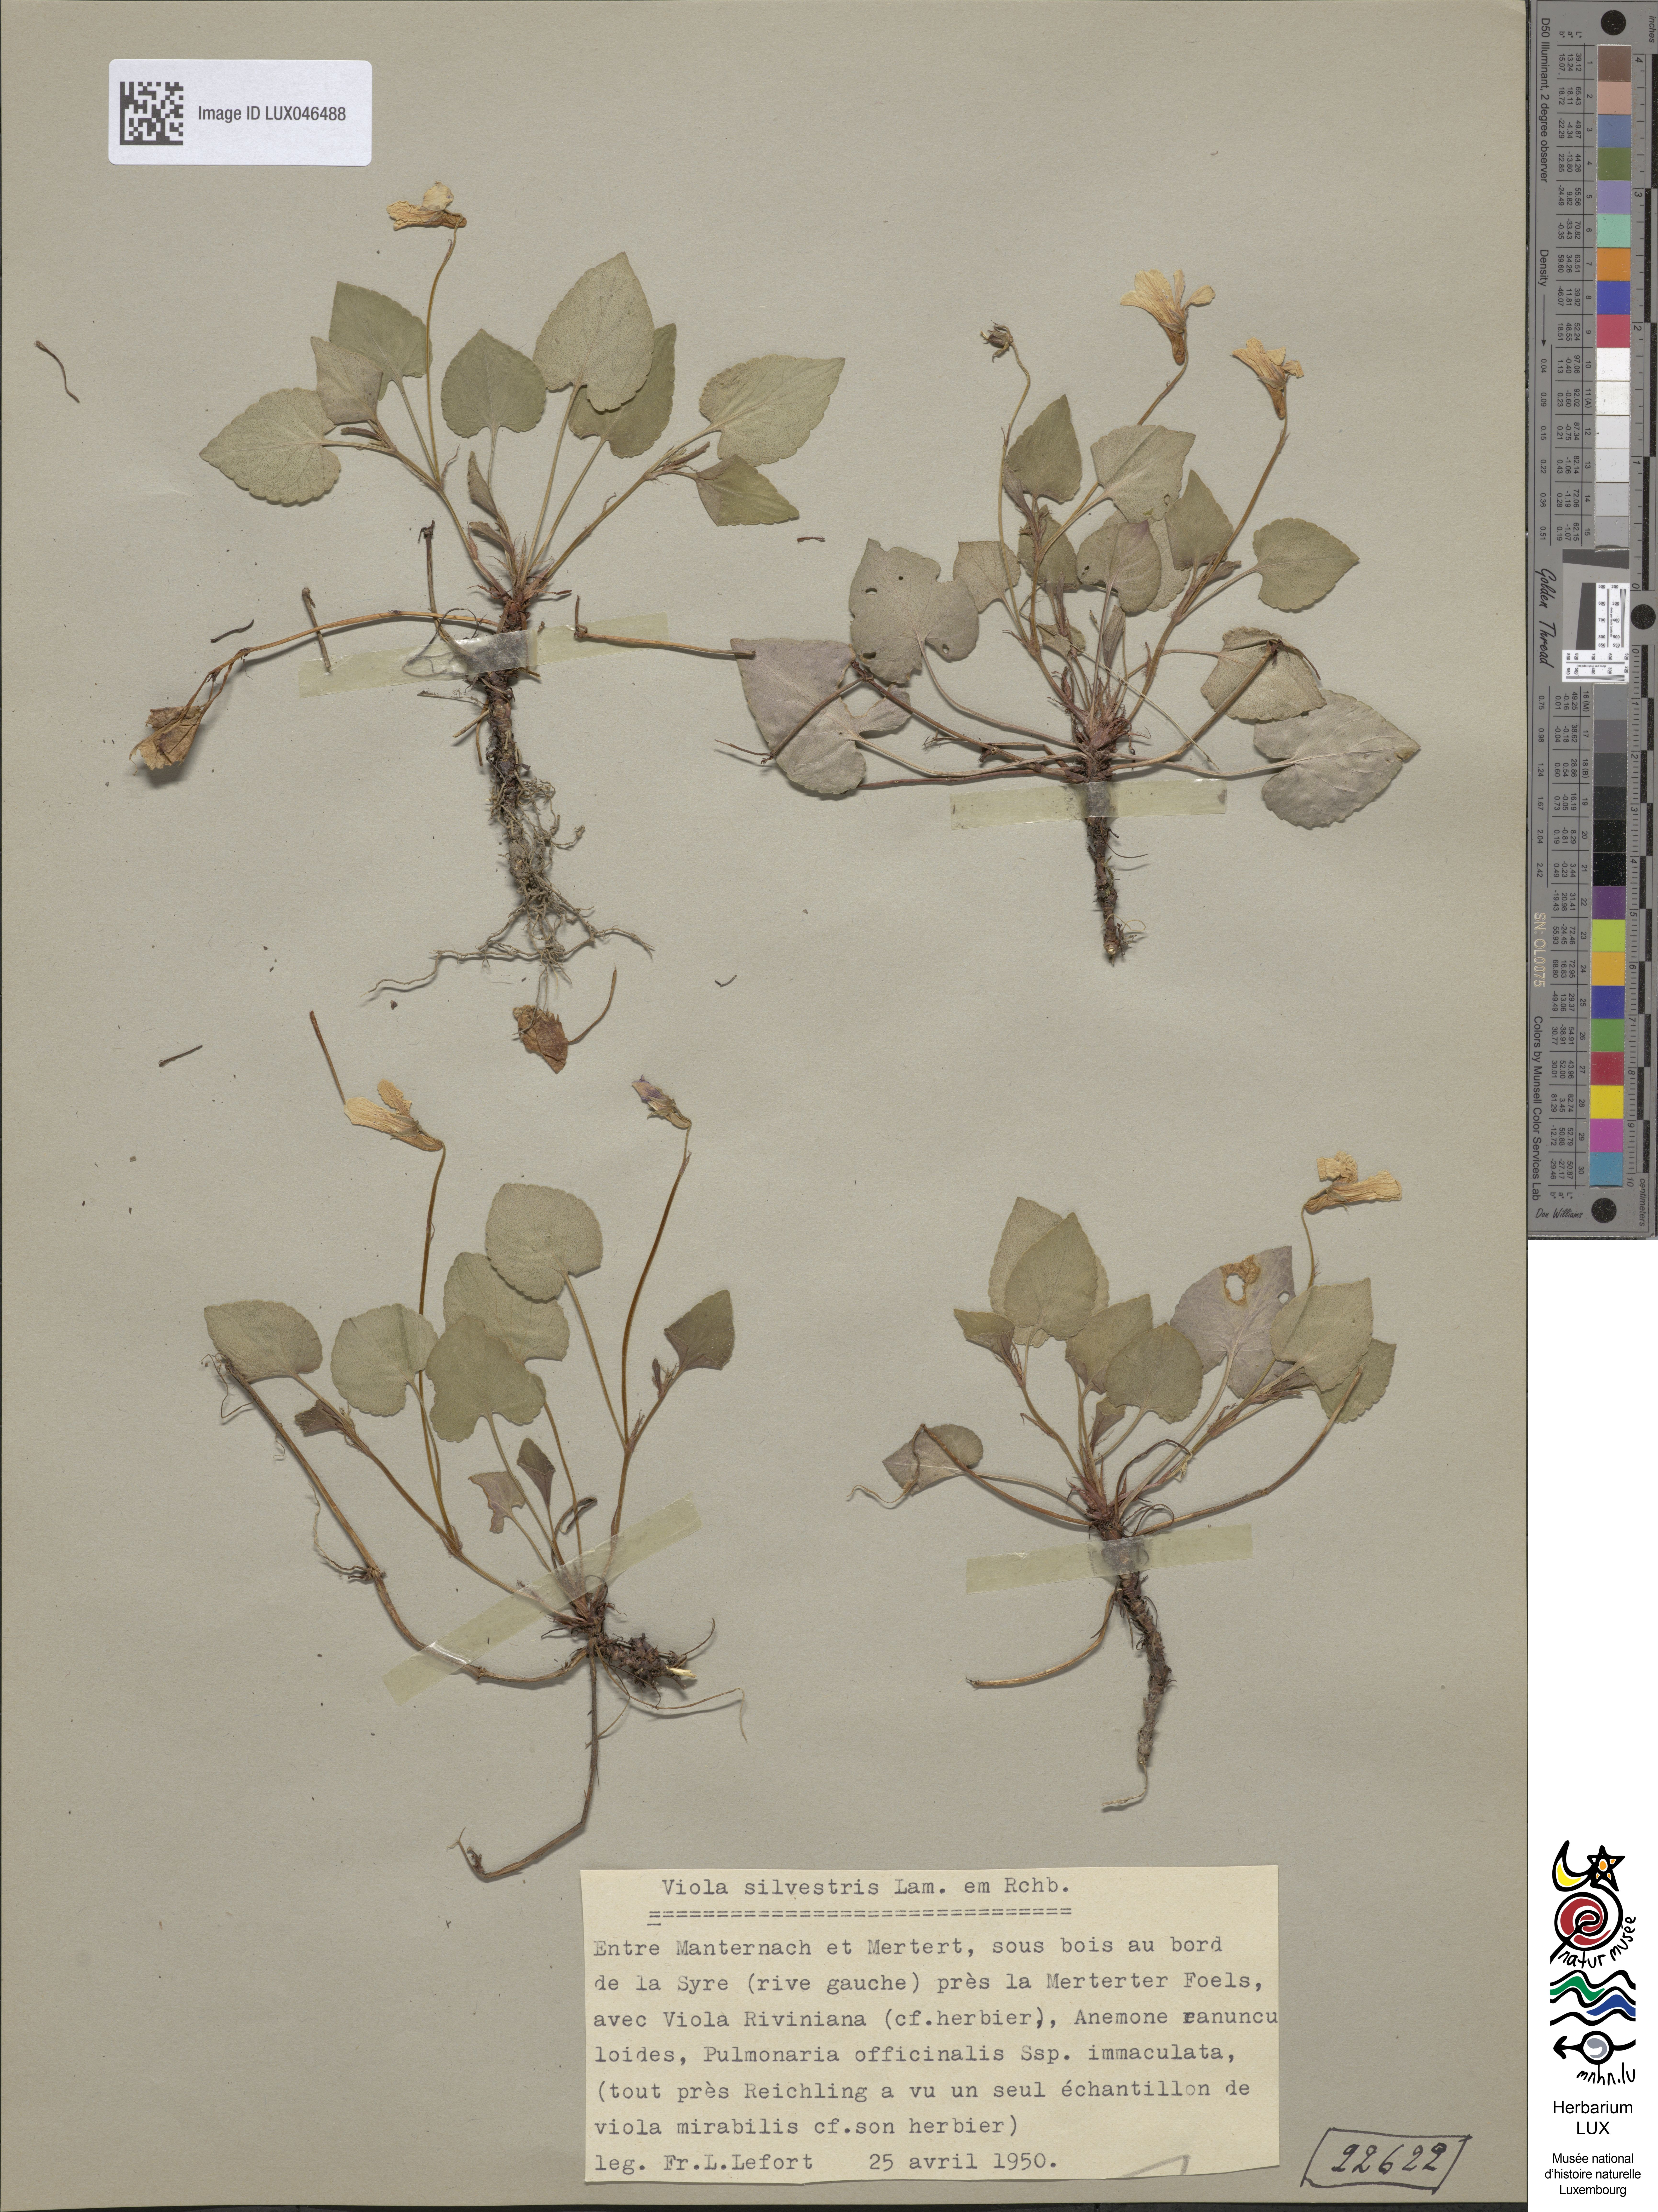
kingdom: Plantae
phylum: Tracheophyta
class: Magnoliopsida
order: Malpighiales
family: Violaceae
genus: Viola
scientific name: Viola reichenbachiana
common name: Early dog-violet
